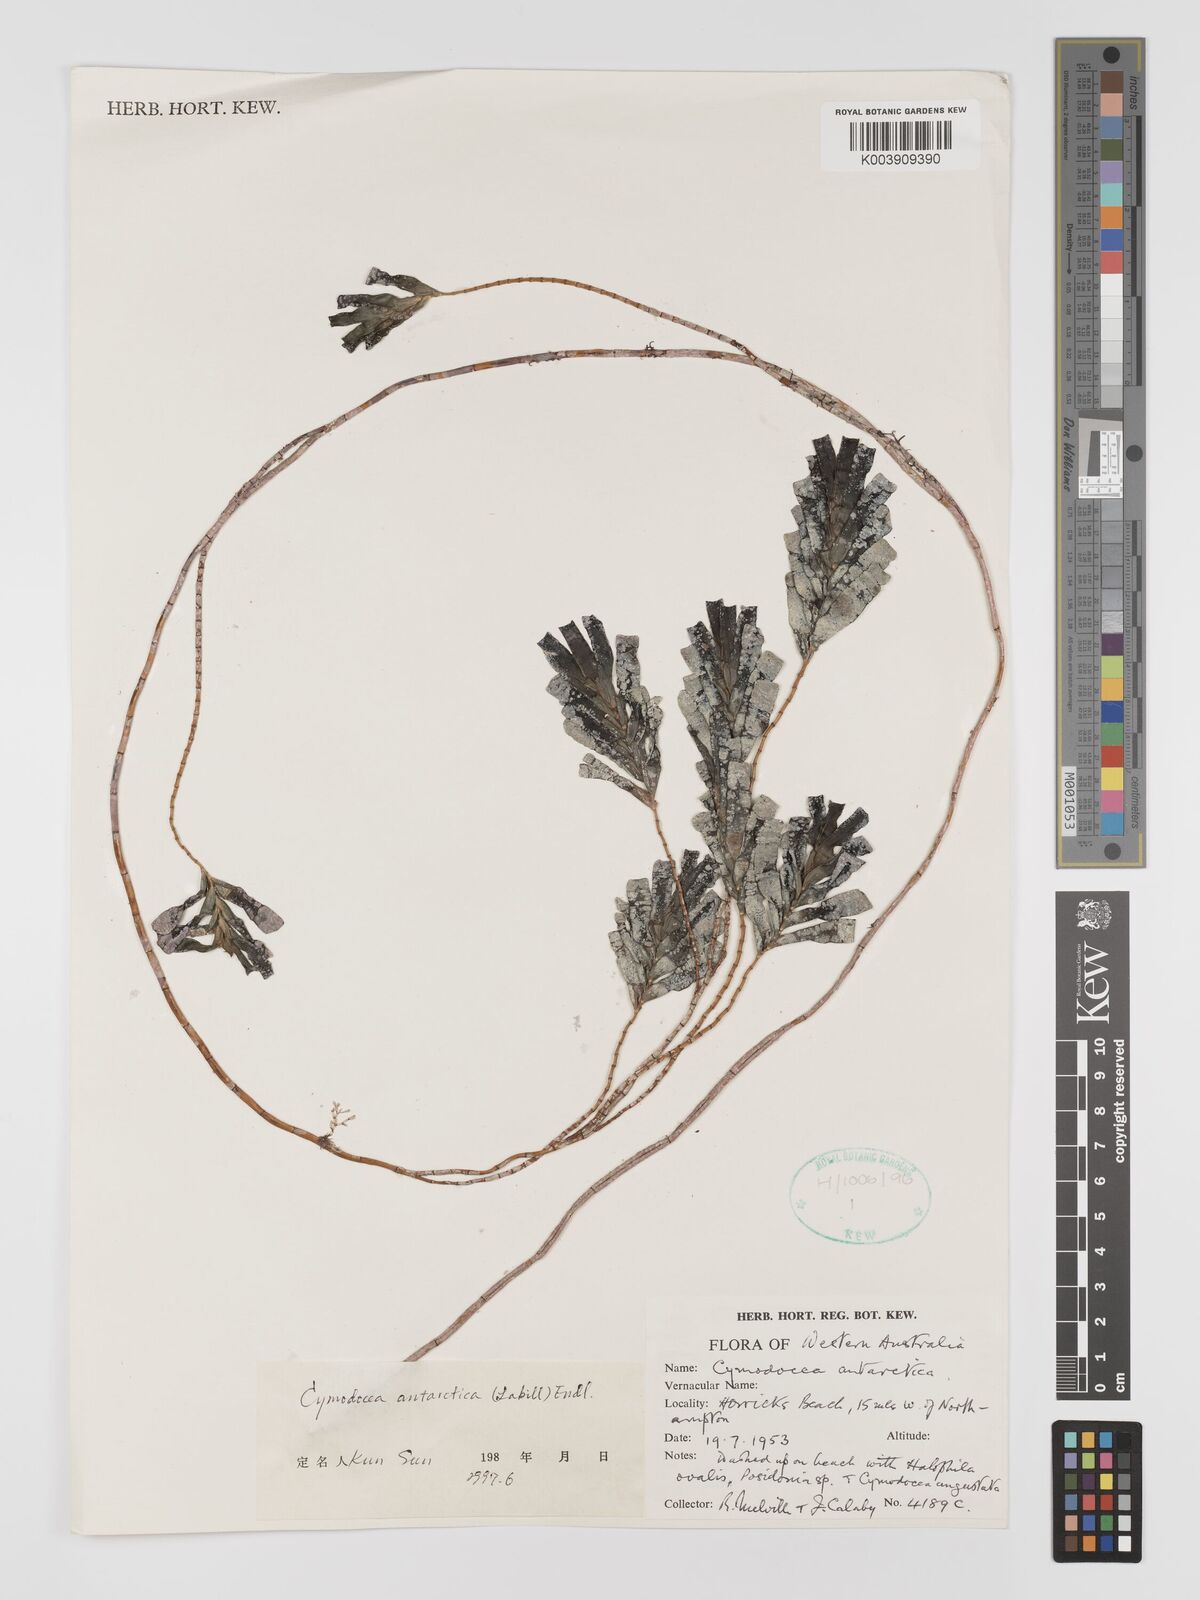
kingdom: Plantae
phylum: Tracheophyta
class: Liliopsida
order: Alismatales
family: Cymodoceaceae
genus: Amphibolis
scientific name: Amphibolis antarctica
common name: Species code: aa
